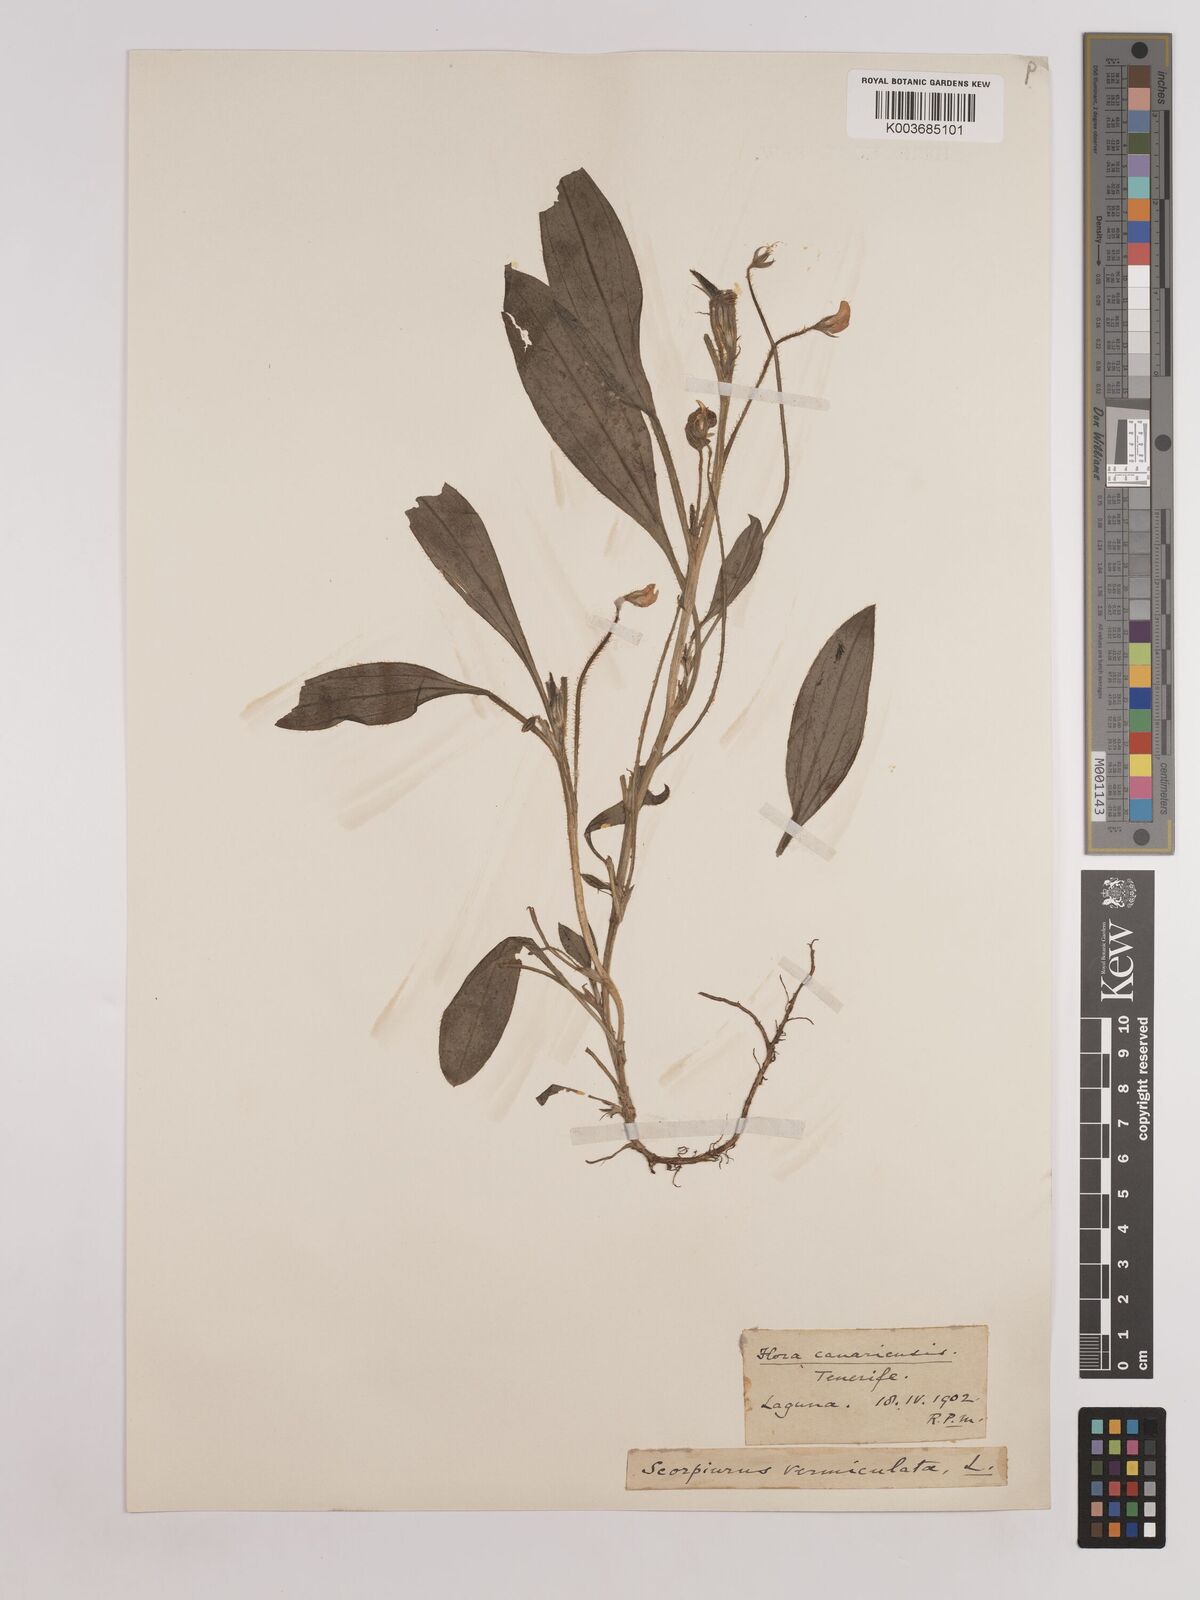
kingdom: Plantae
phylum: Tracheophyta
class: Magnoliopsida
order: Fabales
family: Fabaceae
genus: Scorpiurus
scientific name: Scorpiurus vermiculatus
